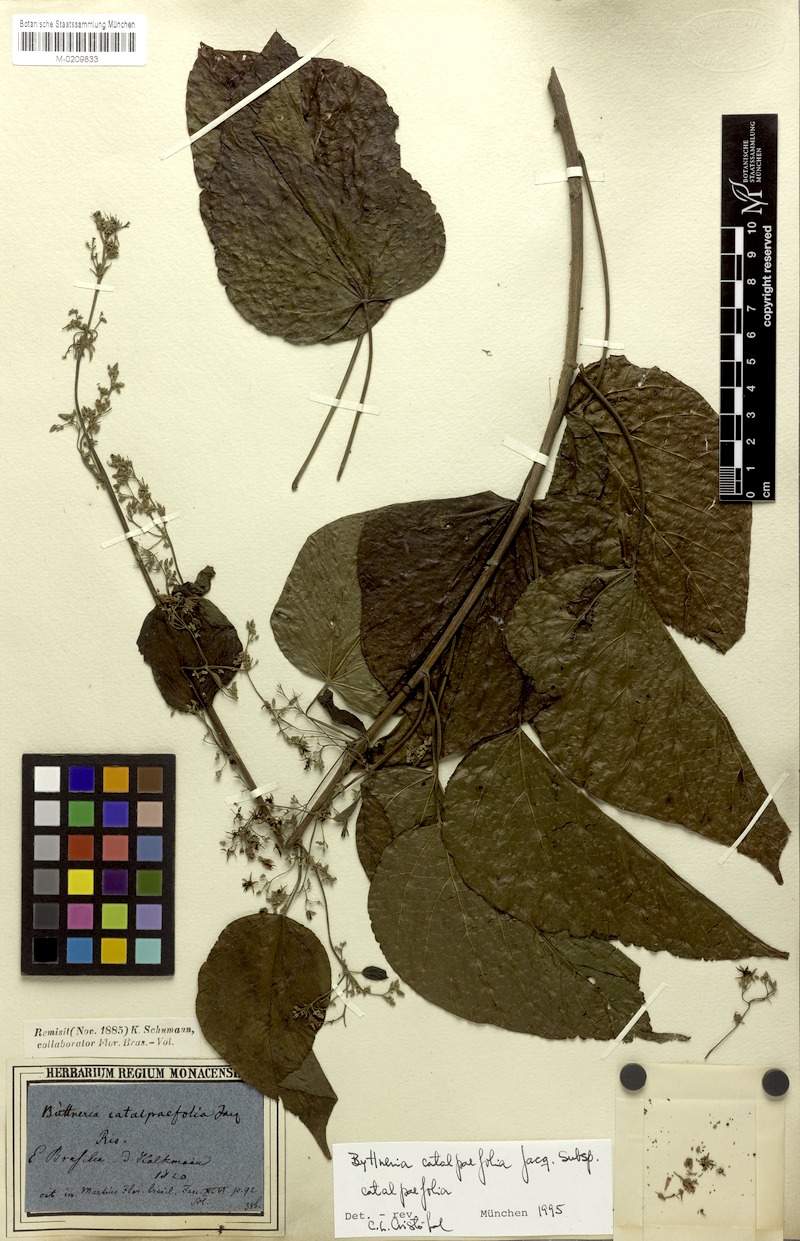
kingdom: Plantae
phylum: Tracheophyta
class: Magnoliopsida
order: Malvales
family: Malvaceae
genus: Byttneria
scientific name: Byttneria catalpifolia
